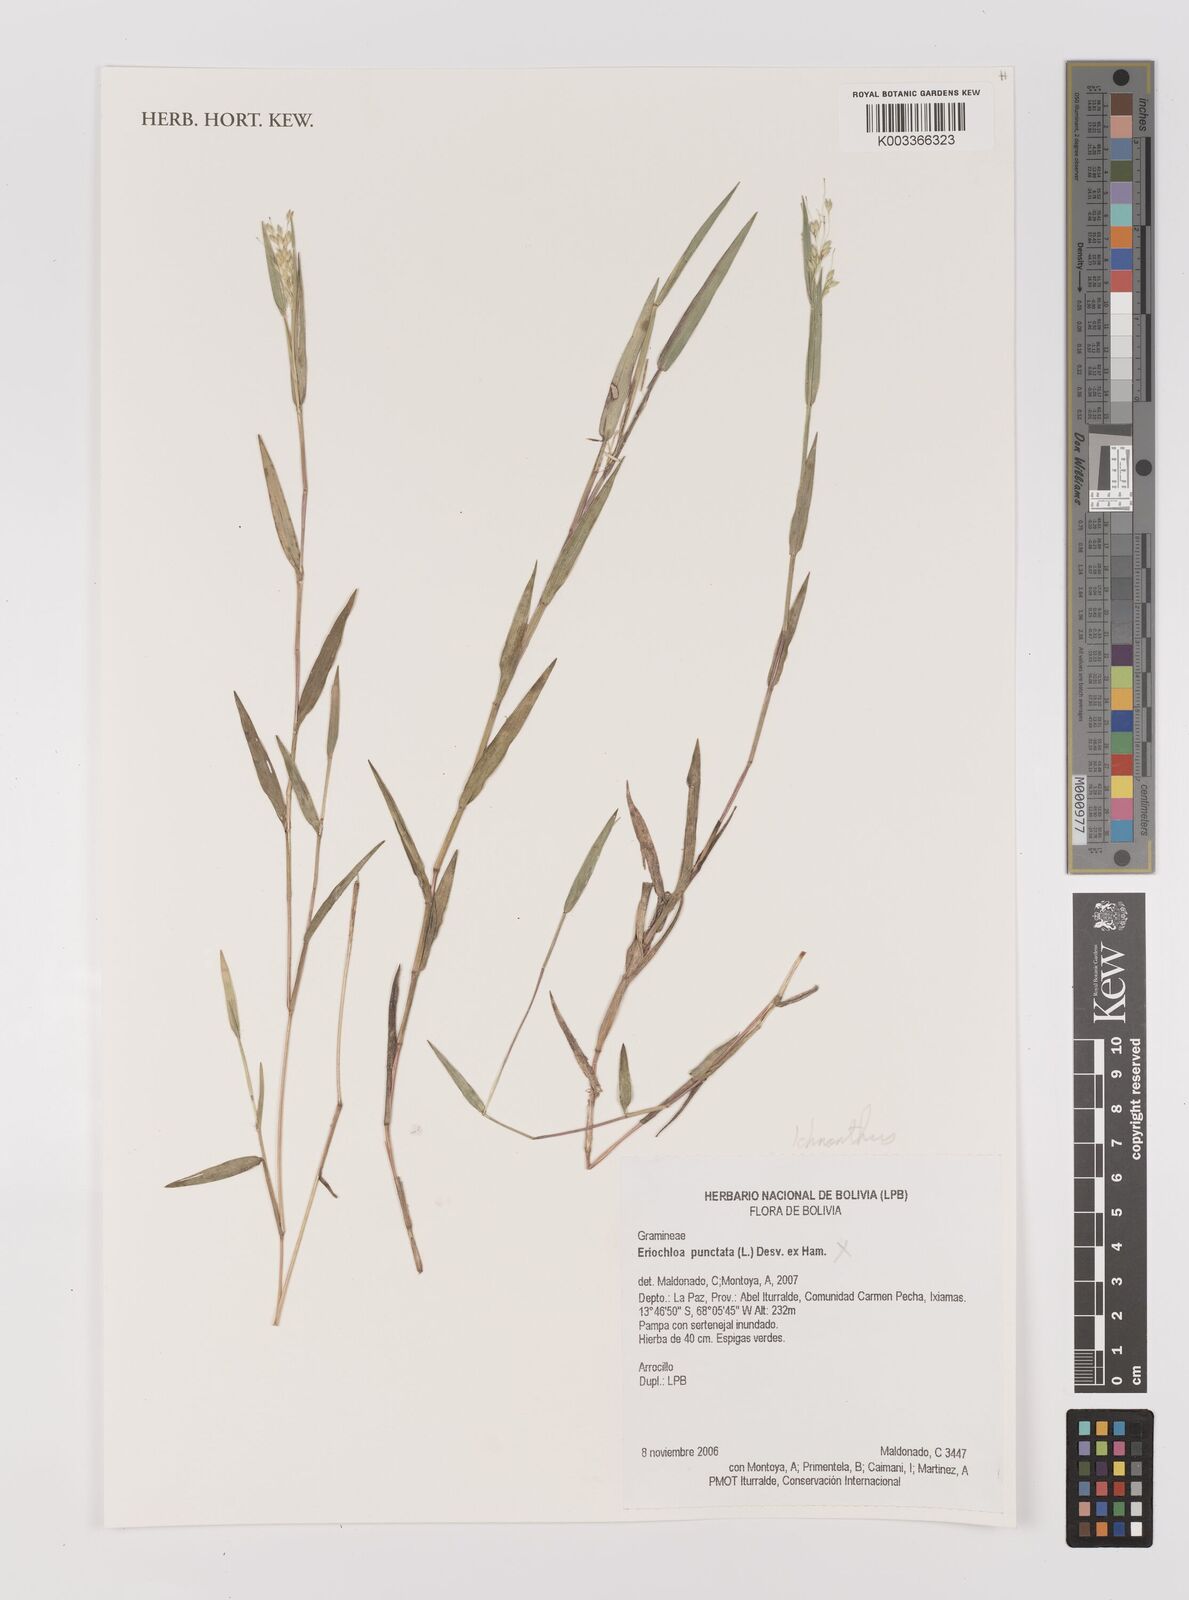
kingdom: Plantae
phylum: Tracheophyta
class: Liliopsida
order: Poales
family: Poaceae
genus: Oedochloa
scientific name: Oedochloa procurrens
